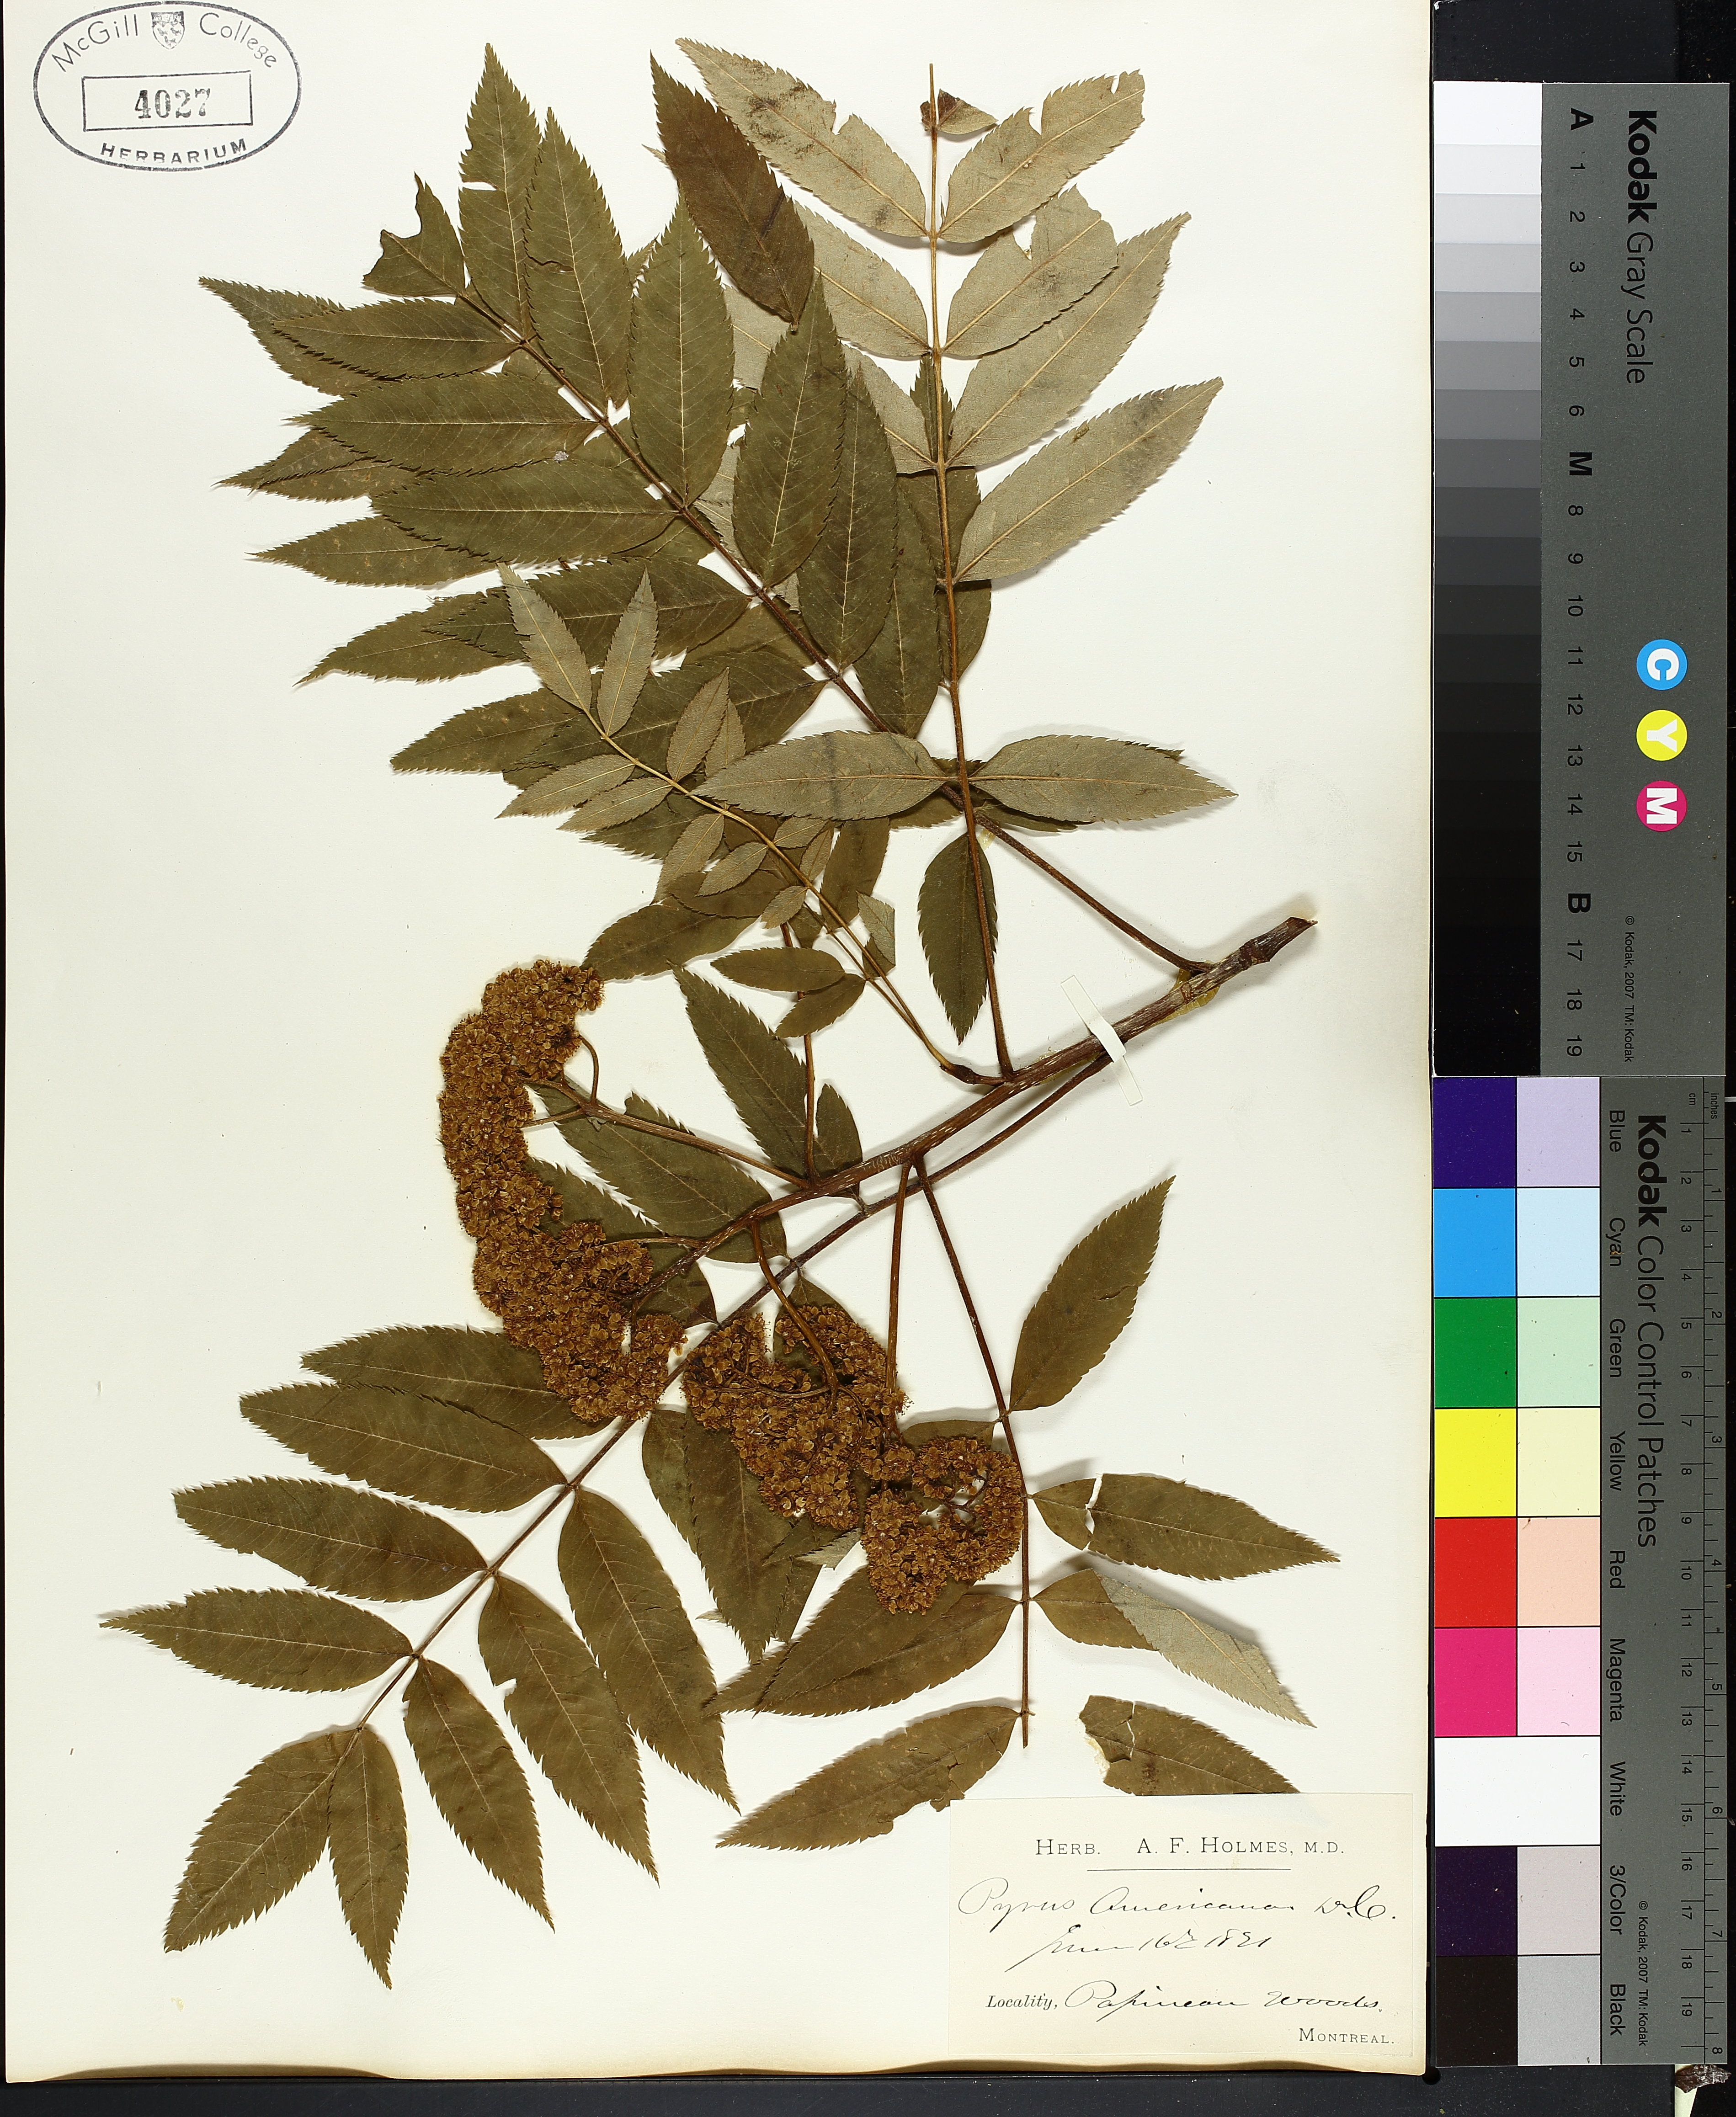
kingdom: Plantae
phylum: Tracheophyta
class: Magnoliopsida
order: Rosales
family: Rosaceae
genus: Sorbus
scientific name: Sorbus americana
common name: American mountain-ash
